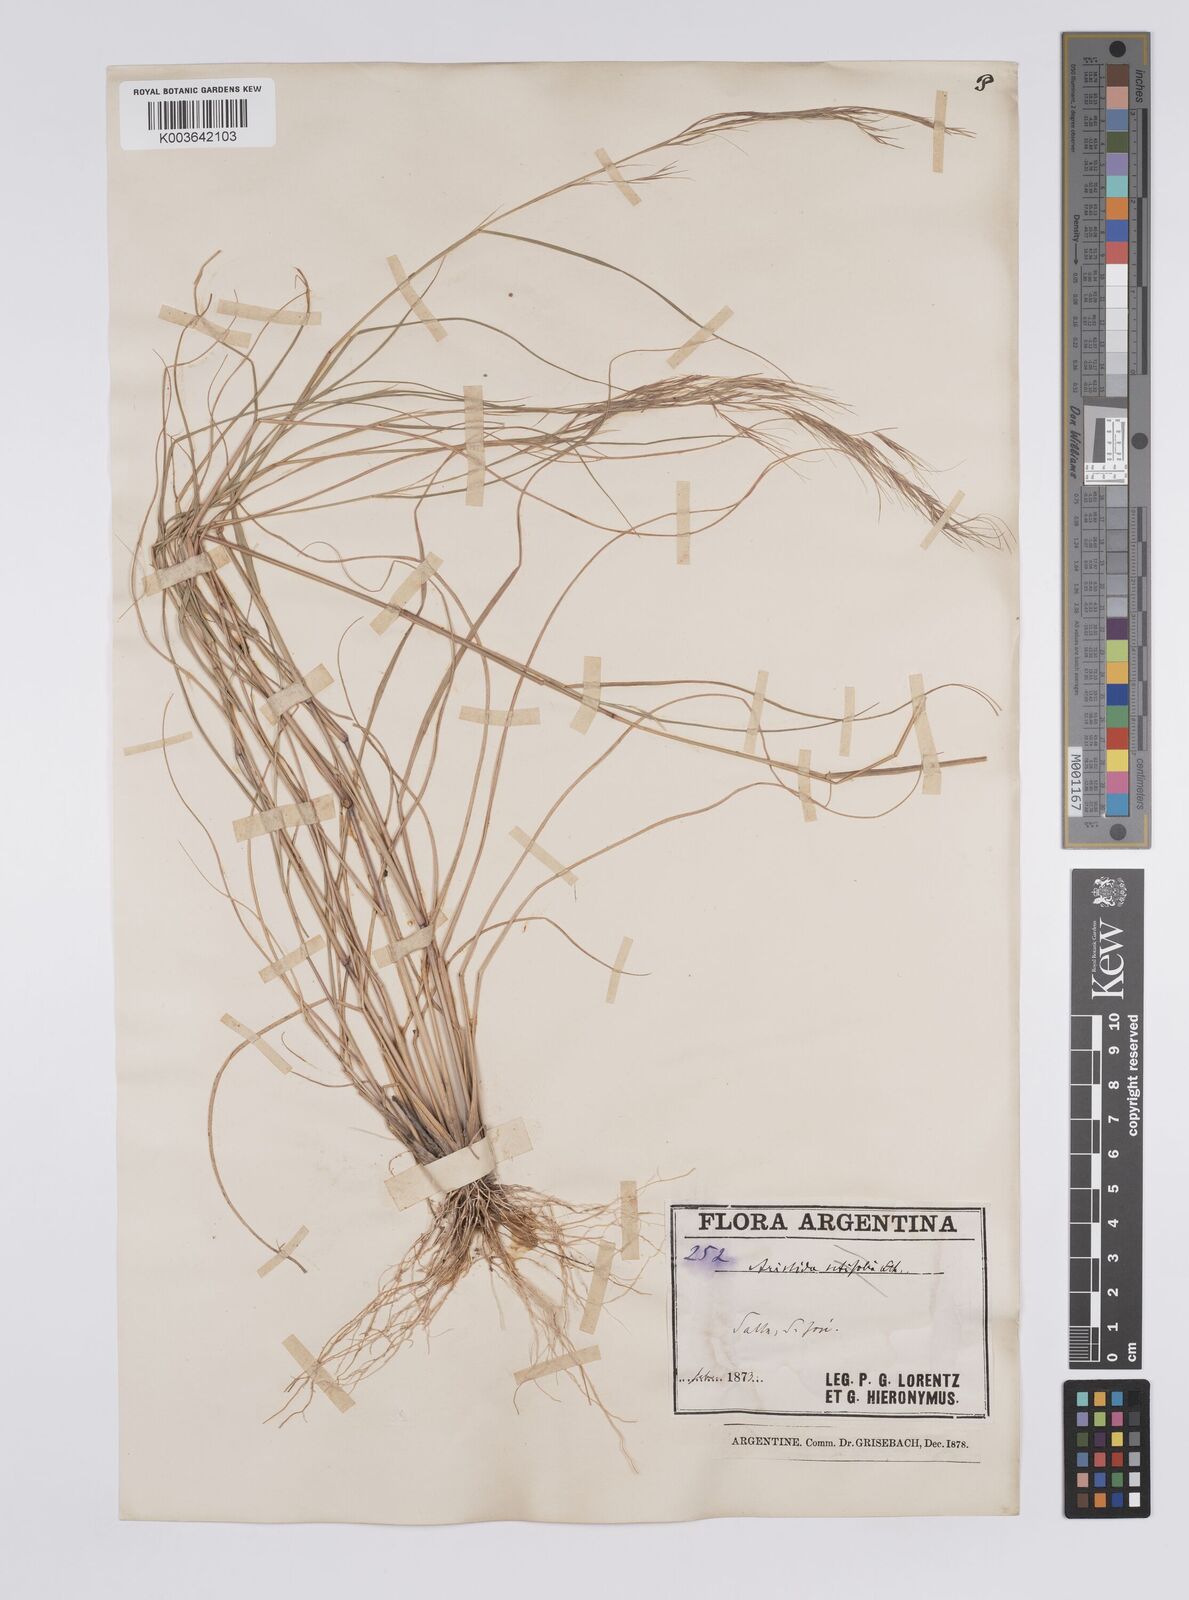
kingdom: Plantae
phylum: Tracheophyta
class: Liliopsida
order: Poales
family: Poaceae
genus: Aristida
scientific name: Aristida adscensionis
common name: Sixweeks threeawn
